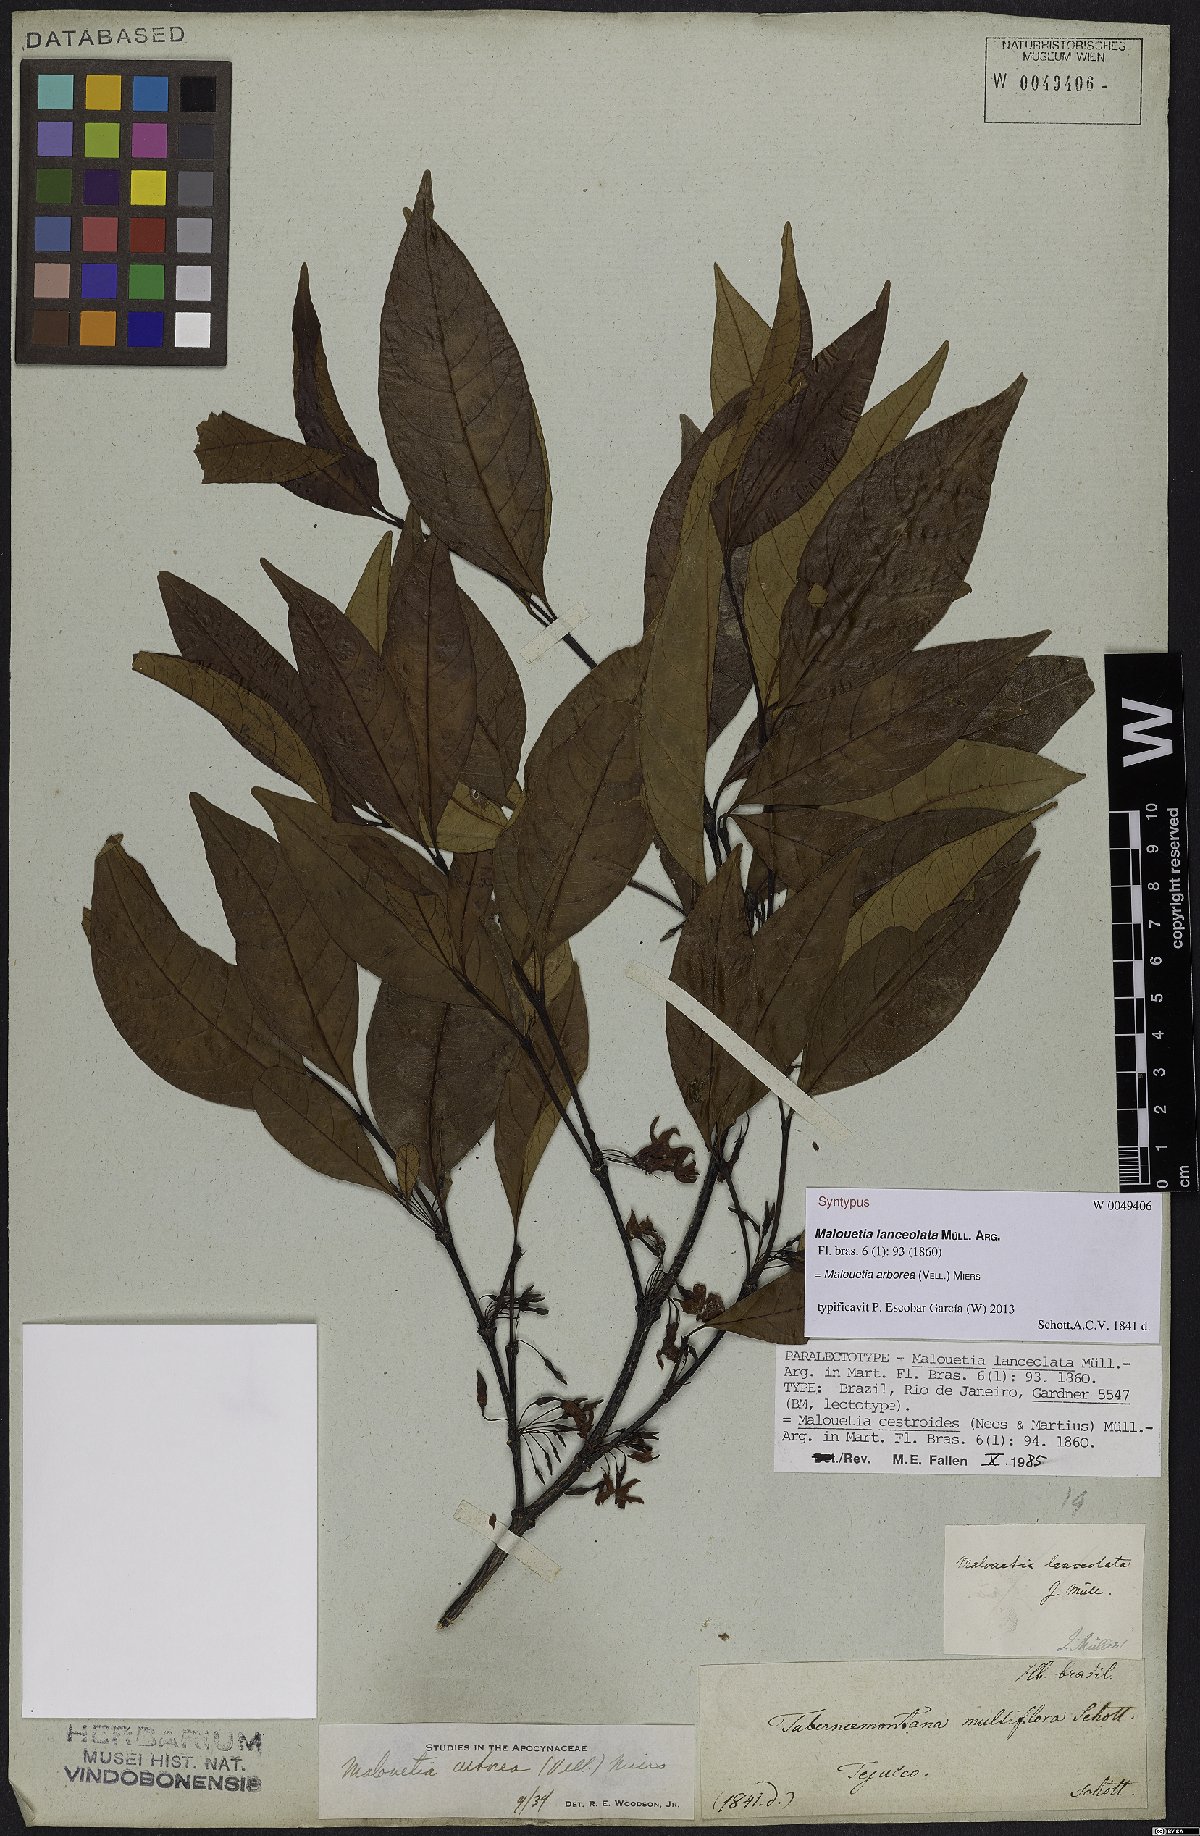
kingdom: Plantae
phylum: Tracheophyta
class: Magnoliopsida
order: Gentianales
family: Apocynaceae
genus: Malouetia
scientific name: Malouetia cestroides
